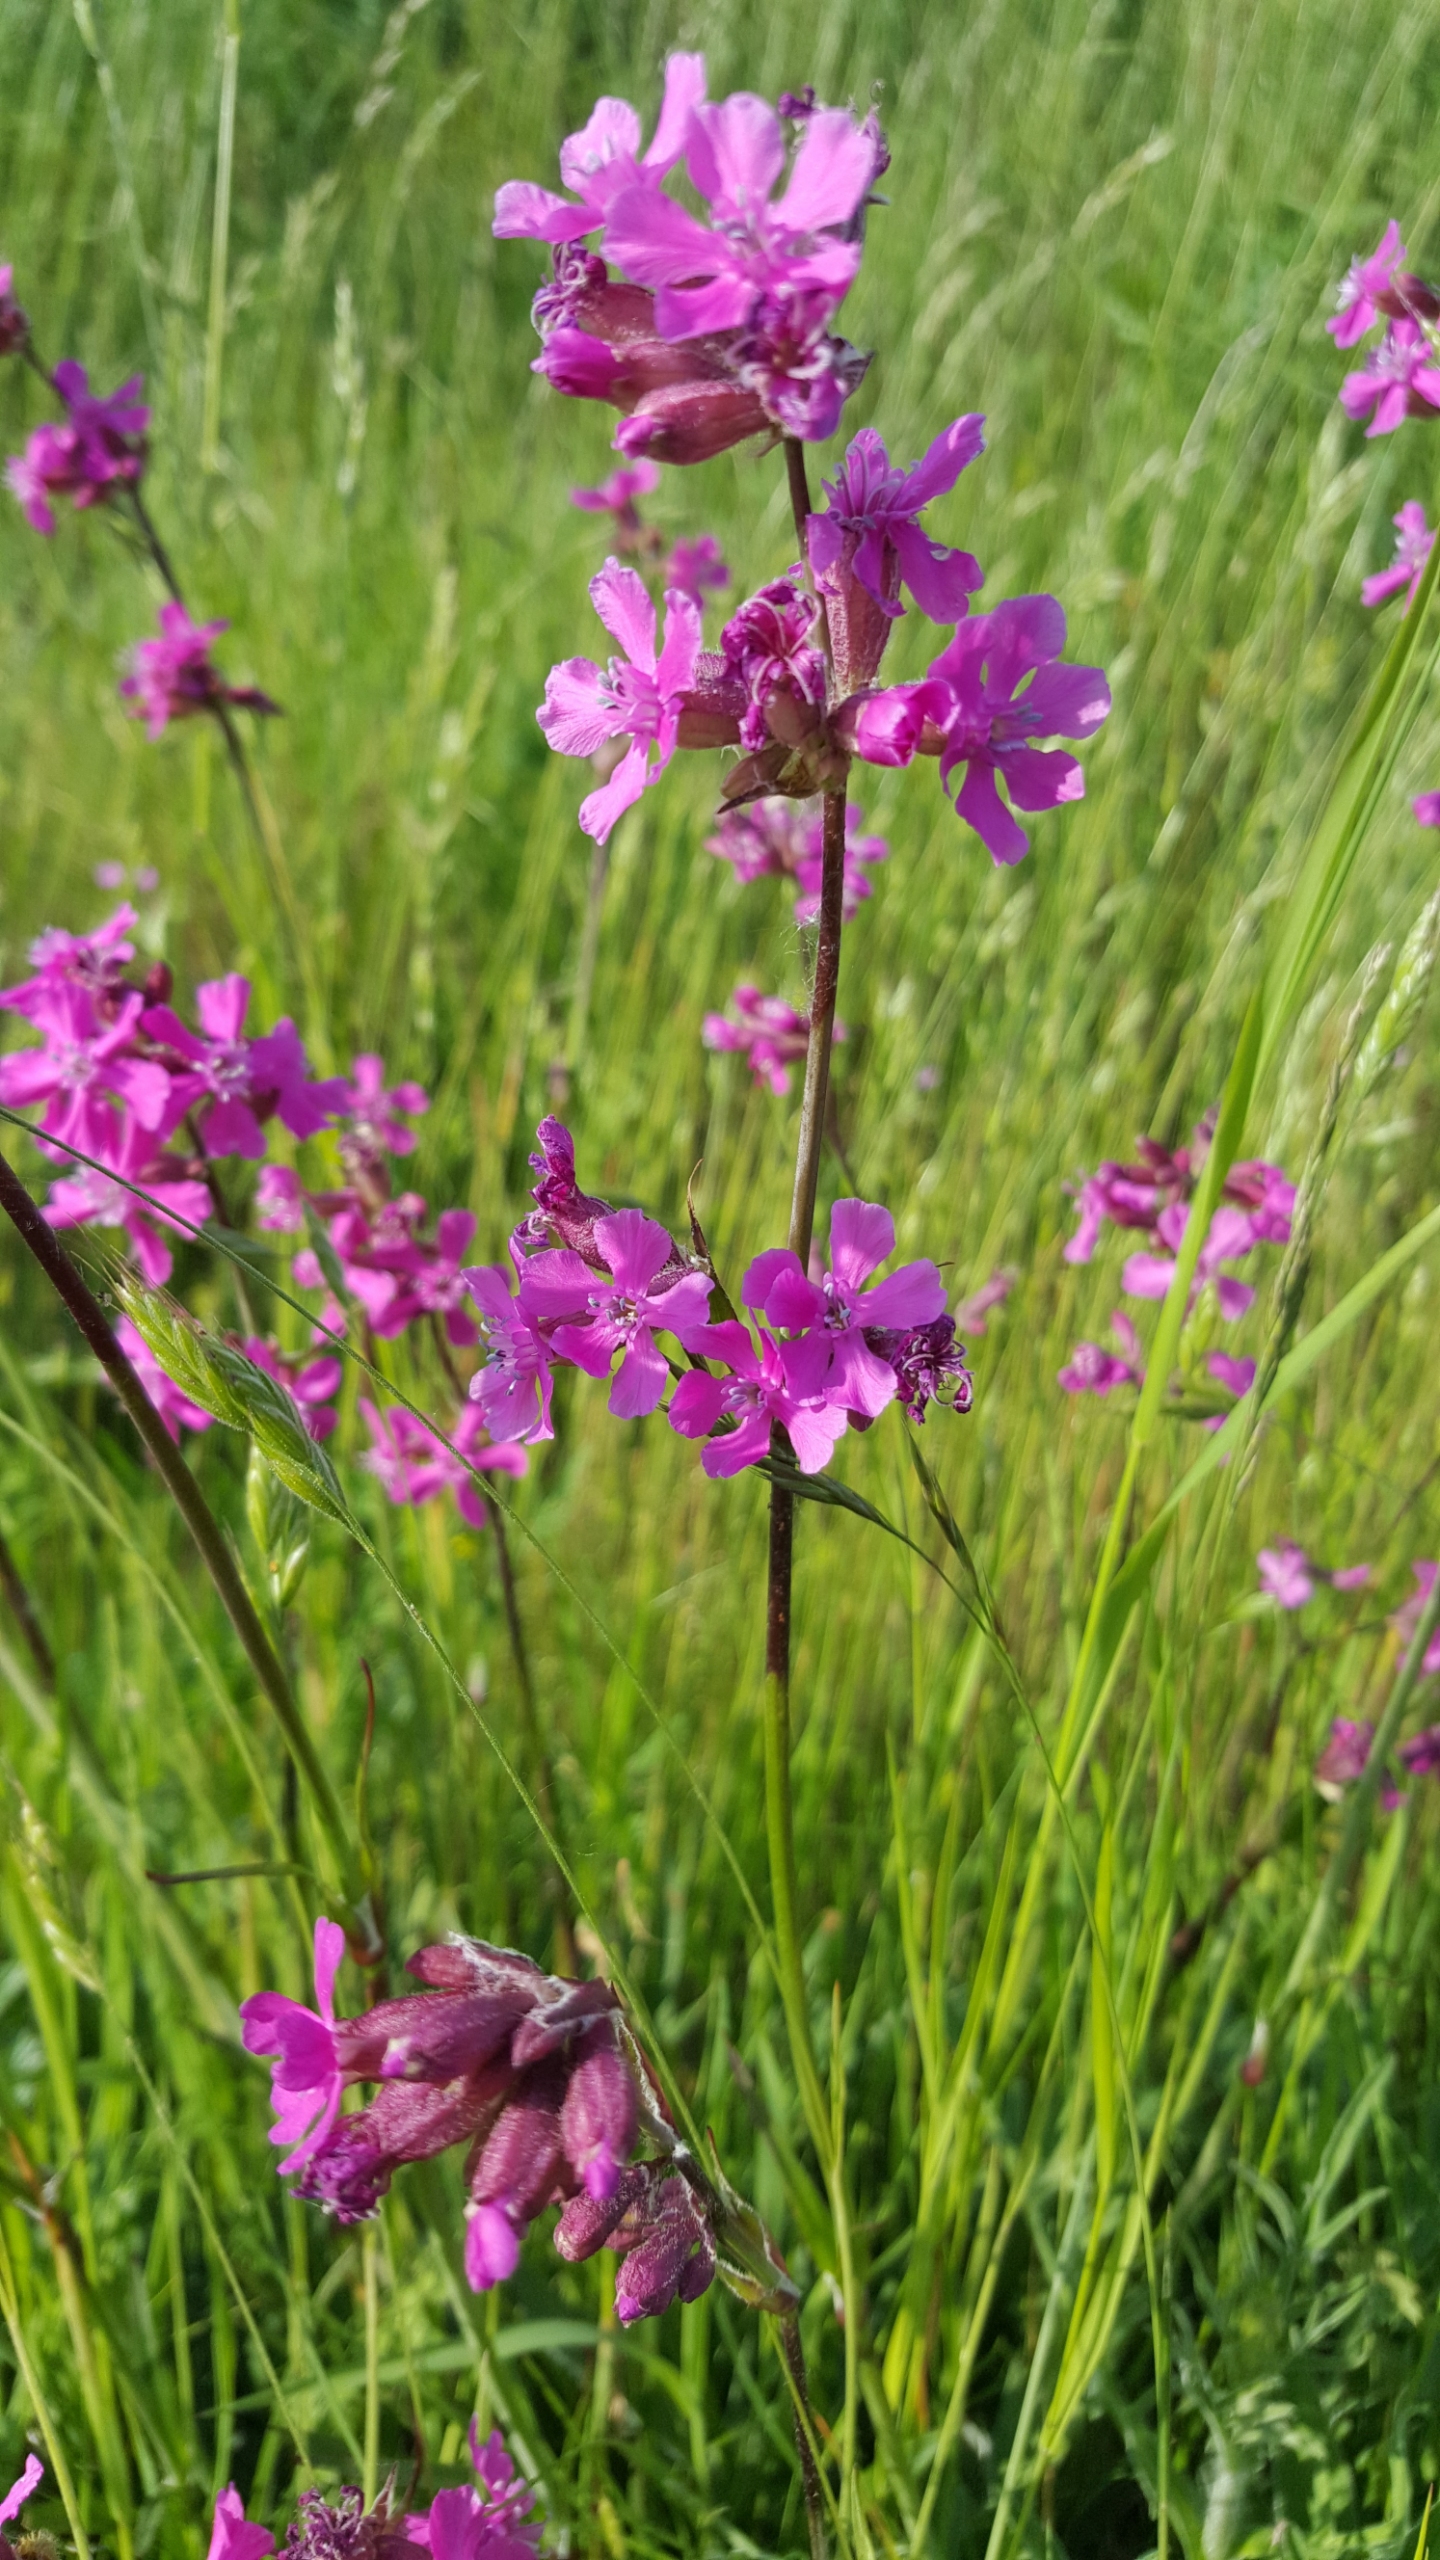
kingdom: Plantae
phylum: Tracheophyta
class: Magnoliopsida
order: Caryophyllales
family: Caryophyllaceae
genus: Viscaria
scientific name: Viscaria vulgaris
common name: Tjærenellike
